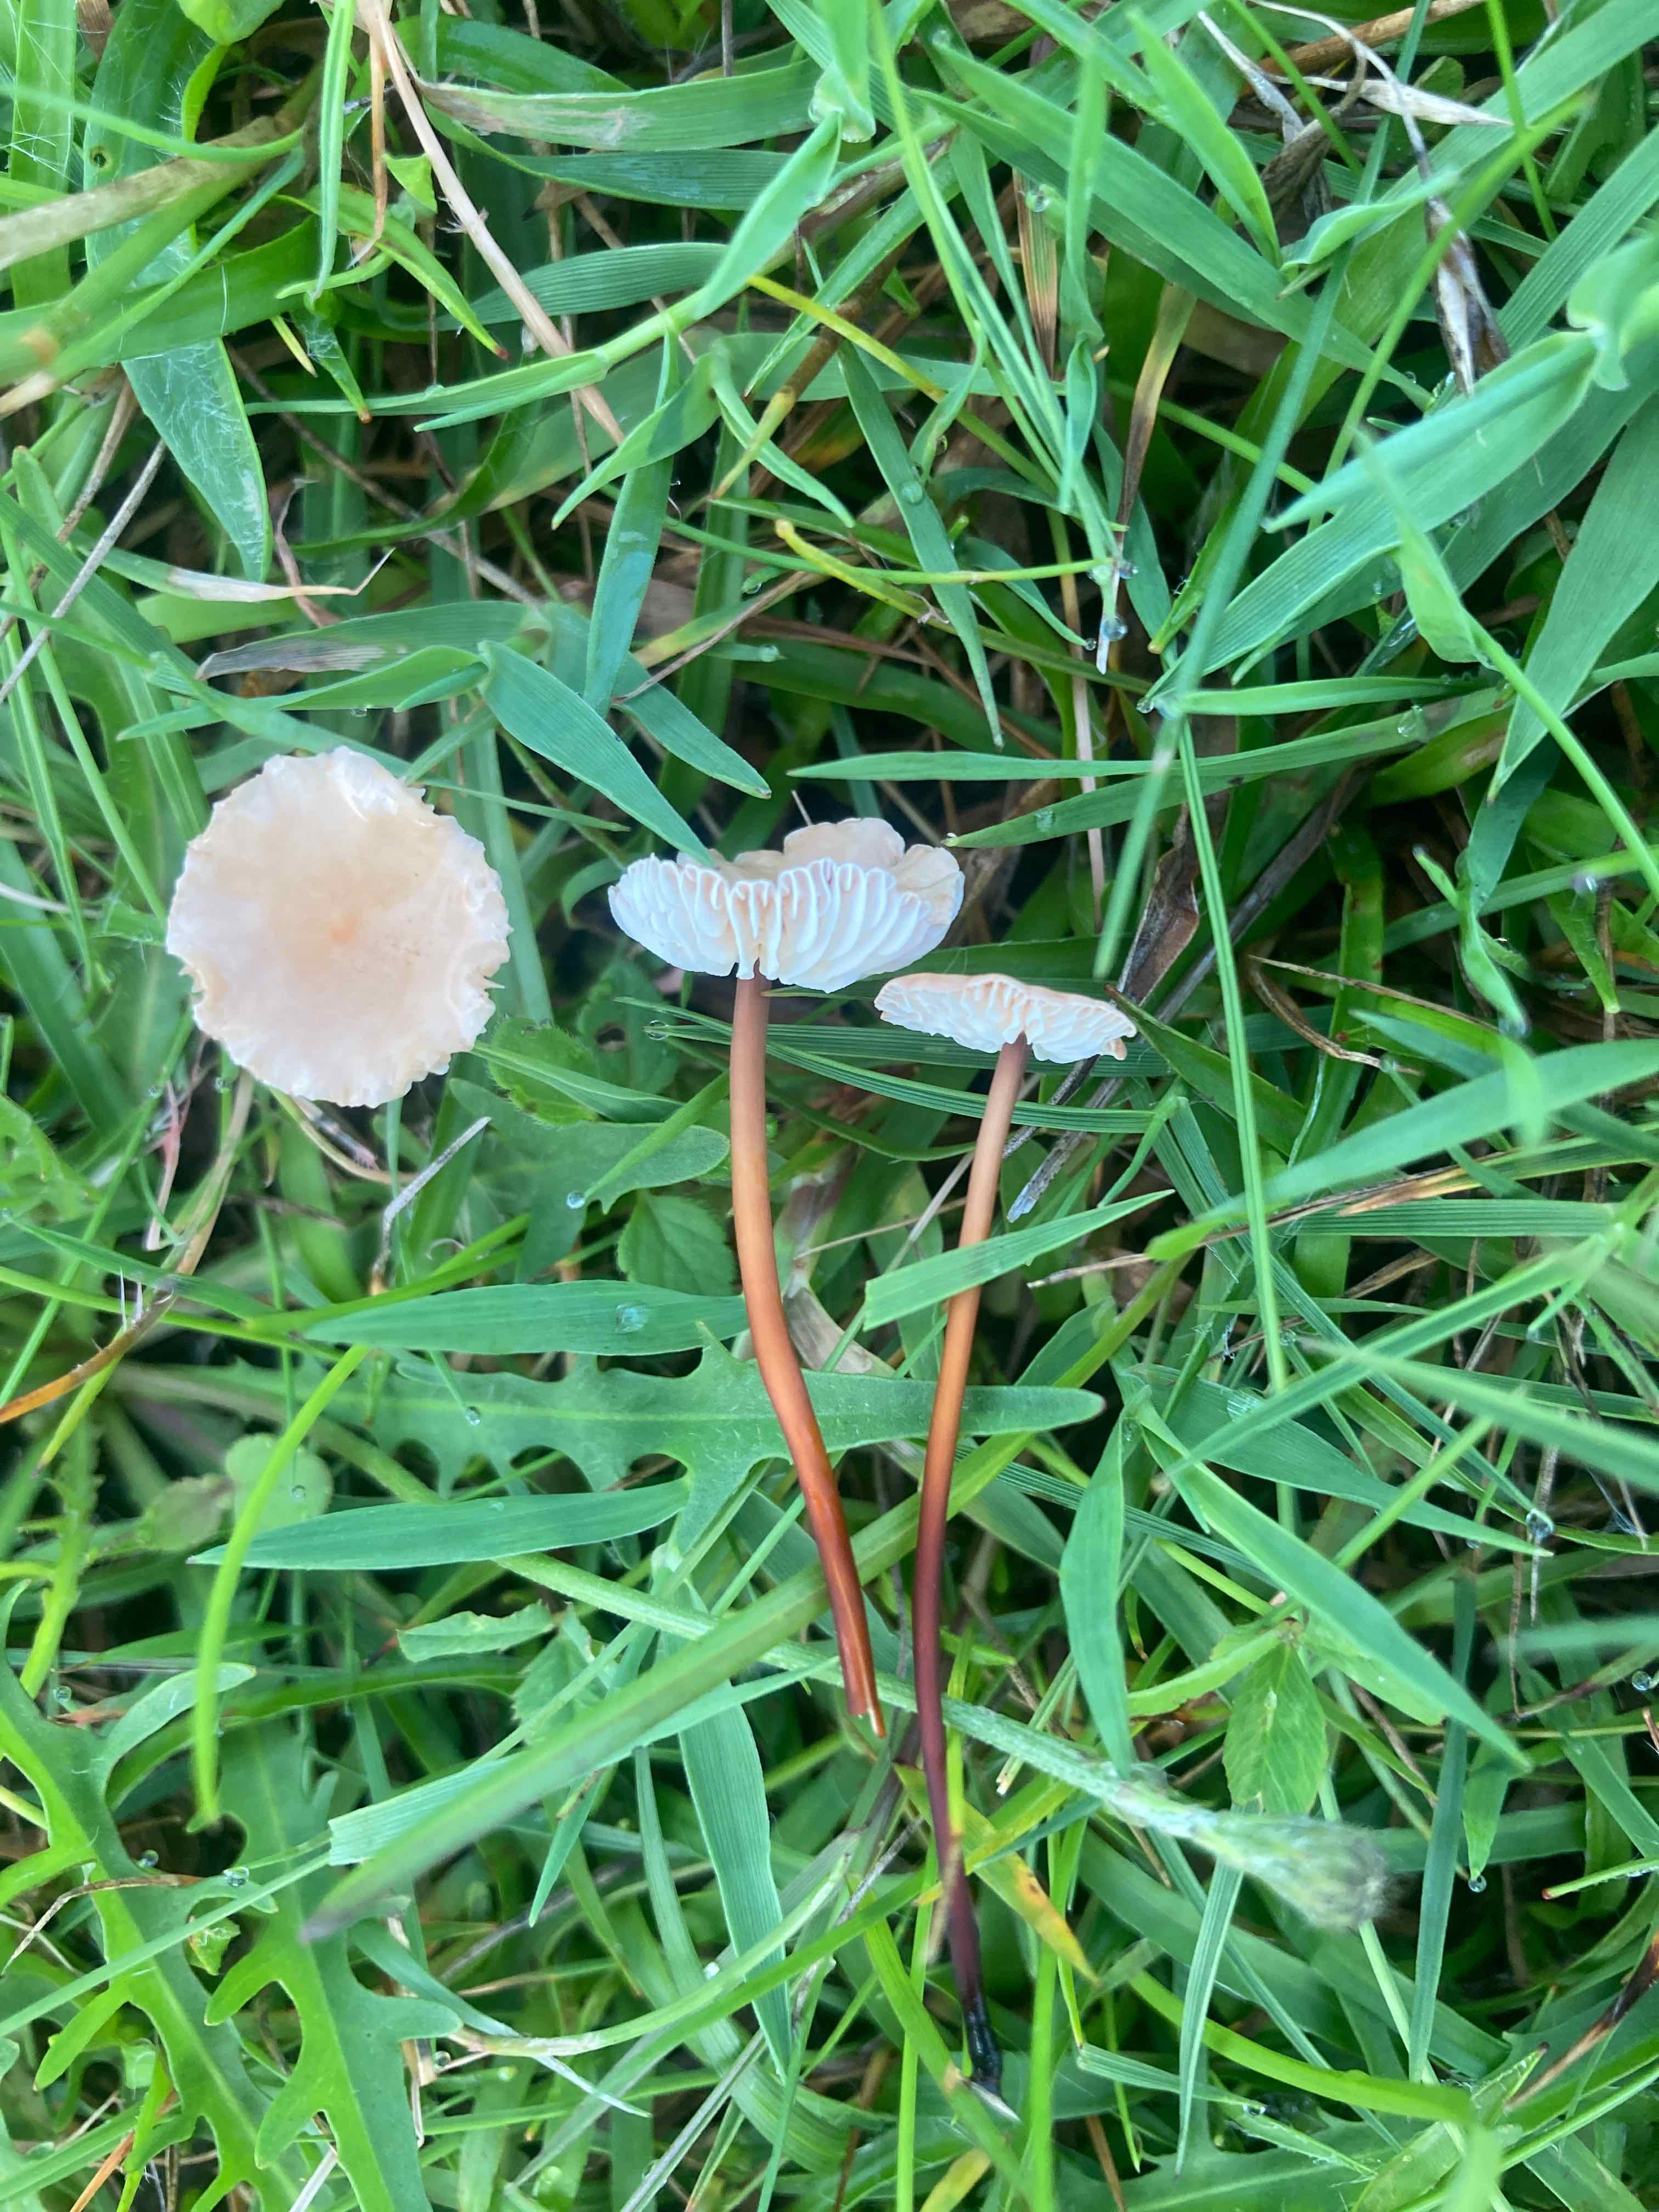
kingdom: Fungi
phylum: Basidiomycota
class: Agaricomycetes
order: Agaricales
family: Omphalotaceae
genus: Mycetinis
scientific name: Mycetinis scorodonius
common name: lille løghat
